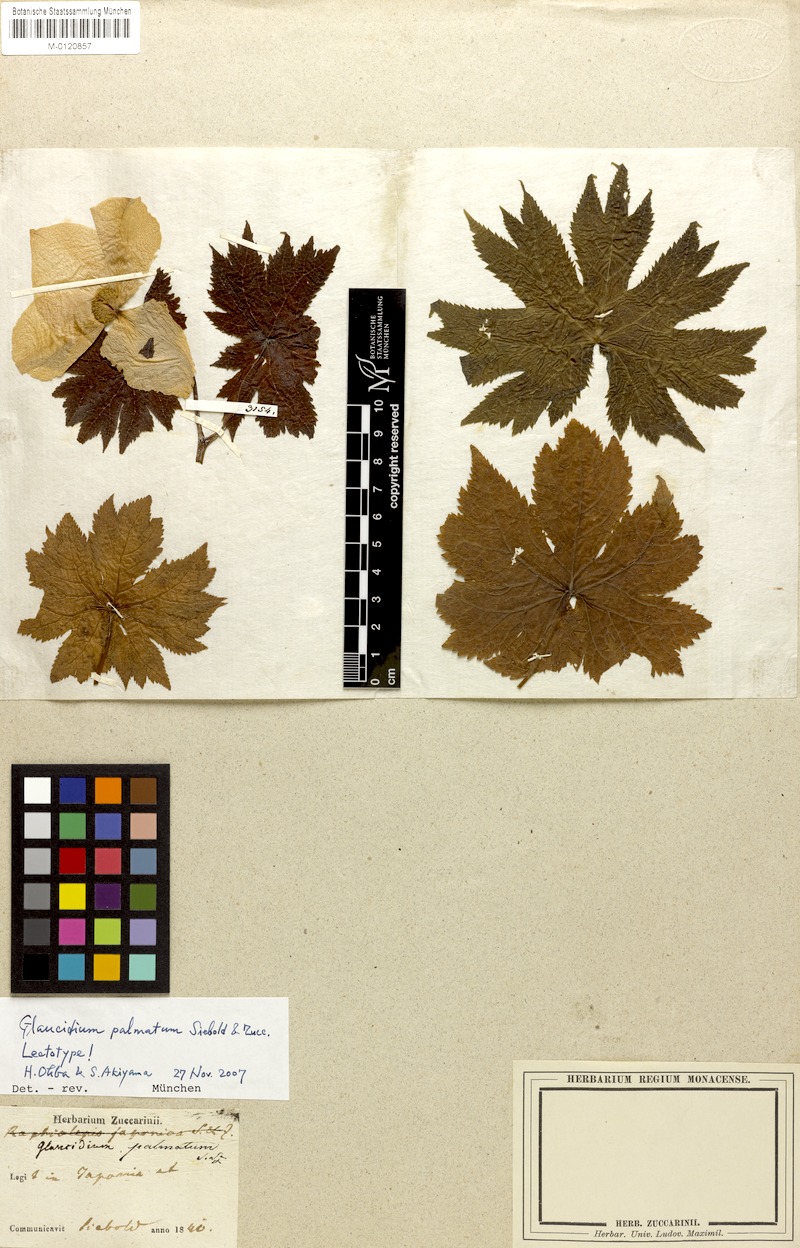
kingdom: Plantae
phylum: Tracheophyta
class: Magnoliopsida
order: Ranunculales
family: Ranunculaceae
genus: Glaucidium
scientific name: Glaucidium palmatum
